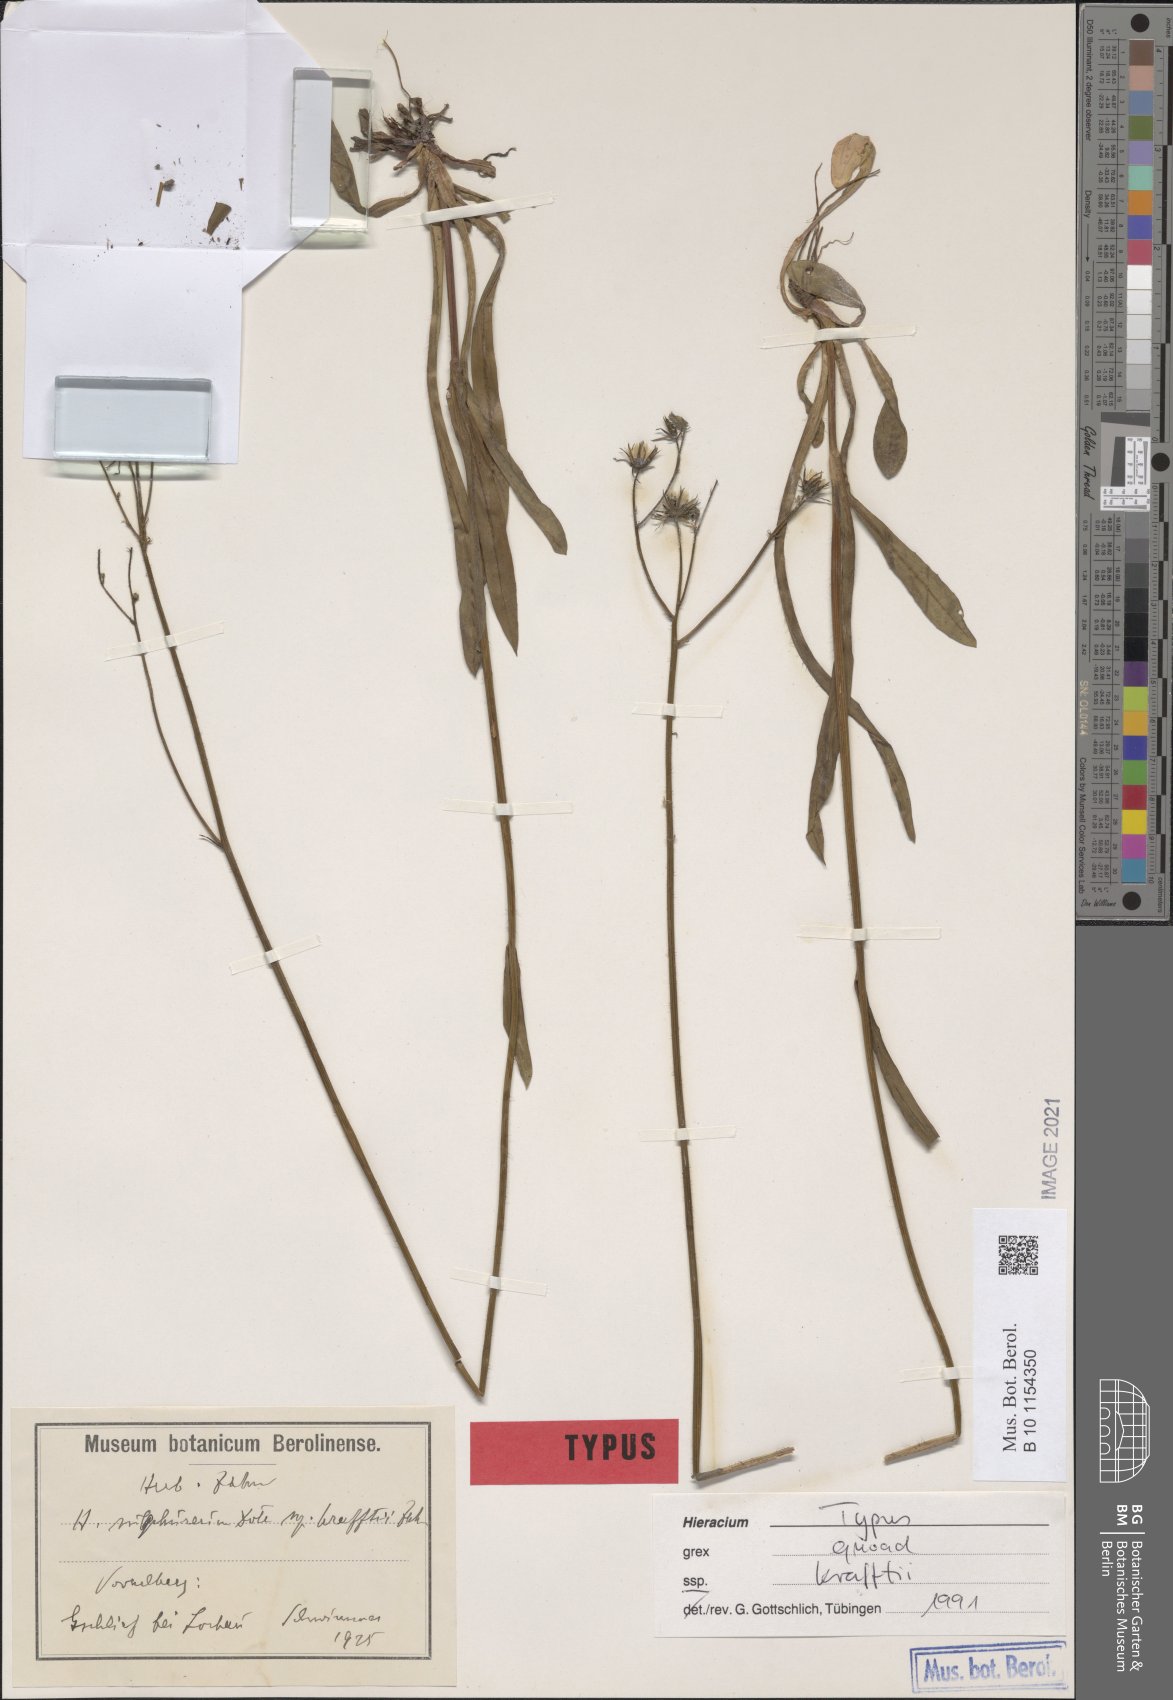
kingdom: Plantae
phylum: Tracheophyta
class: Magnoliopsida
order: Asterales
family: Asteraceae
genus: Pilosella
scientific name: Pilosella sulphurea
